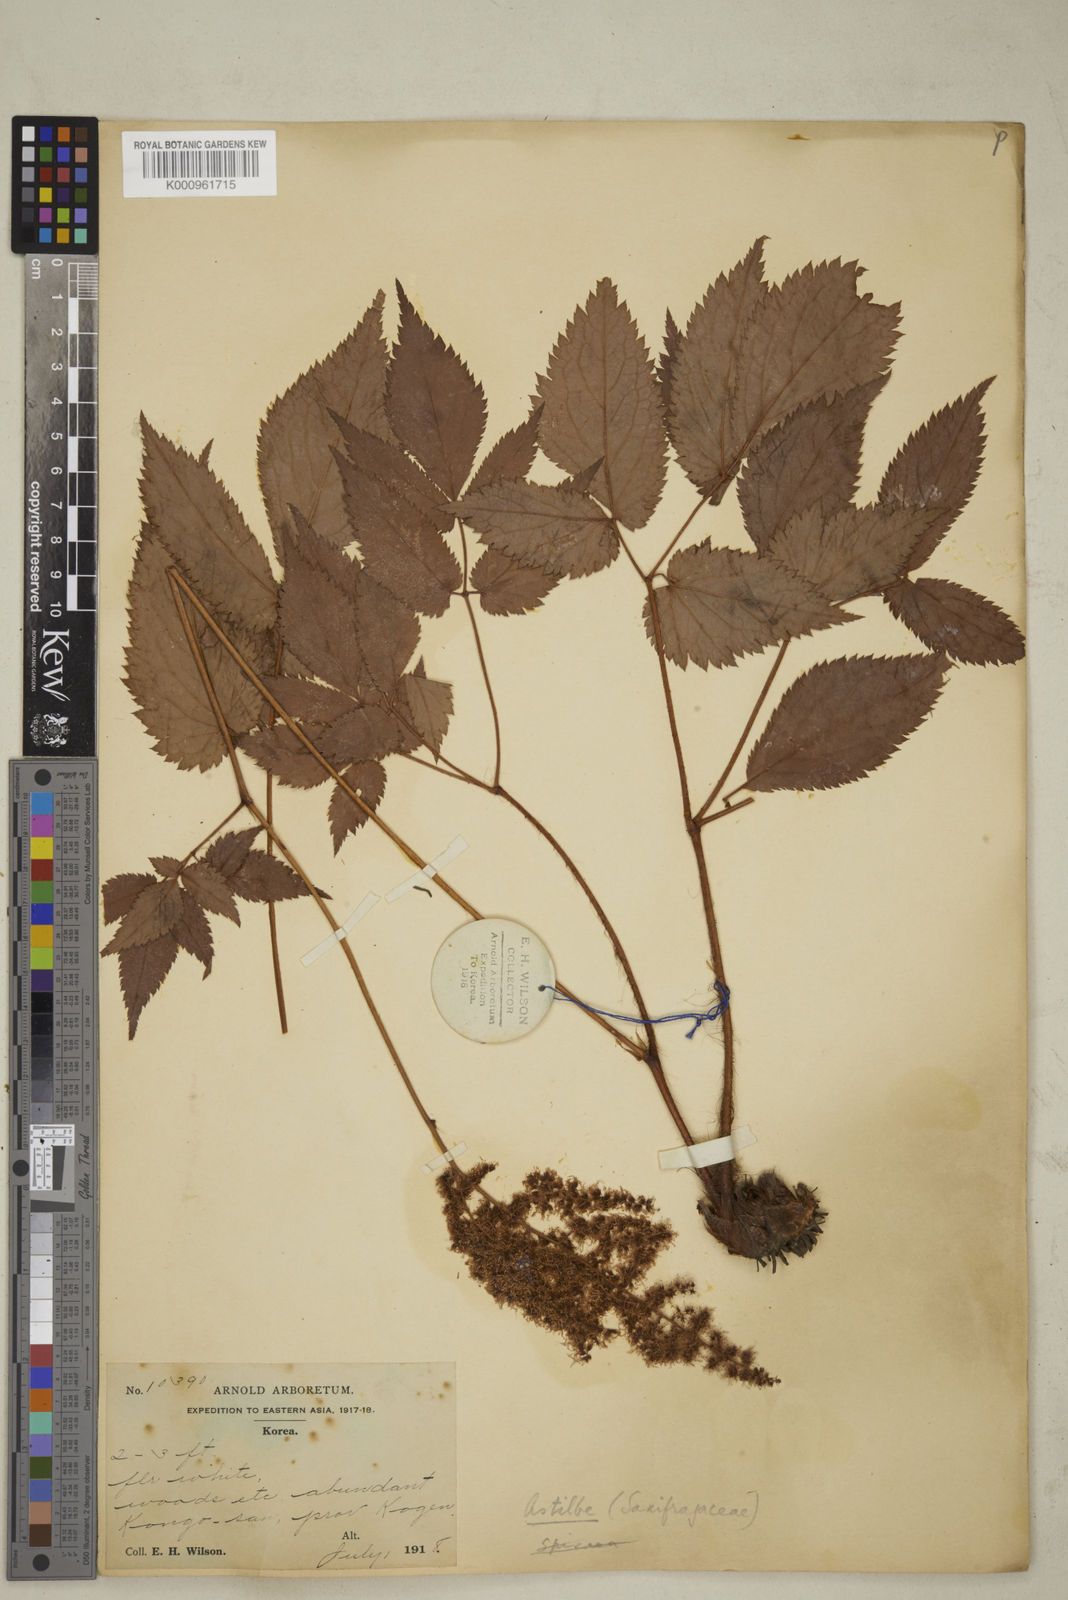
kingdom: Plantae
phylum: Tracheophyta
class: Magnoliopsida
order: Saxifragales
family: Saxifragaceae
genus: Astilbe
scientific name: Astilbe grandis
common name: Korean astilbe
